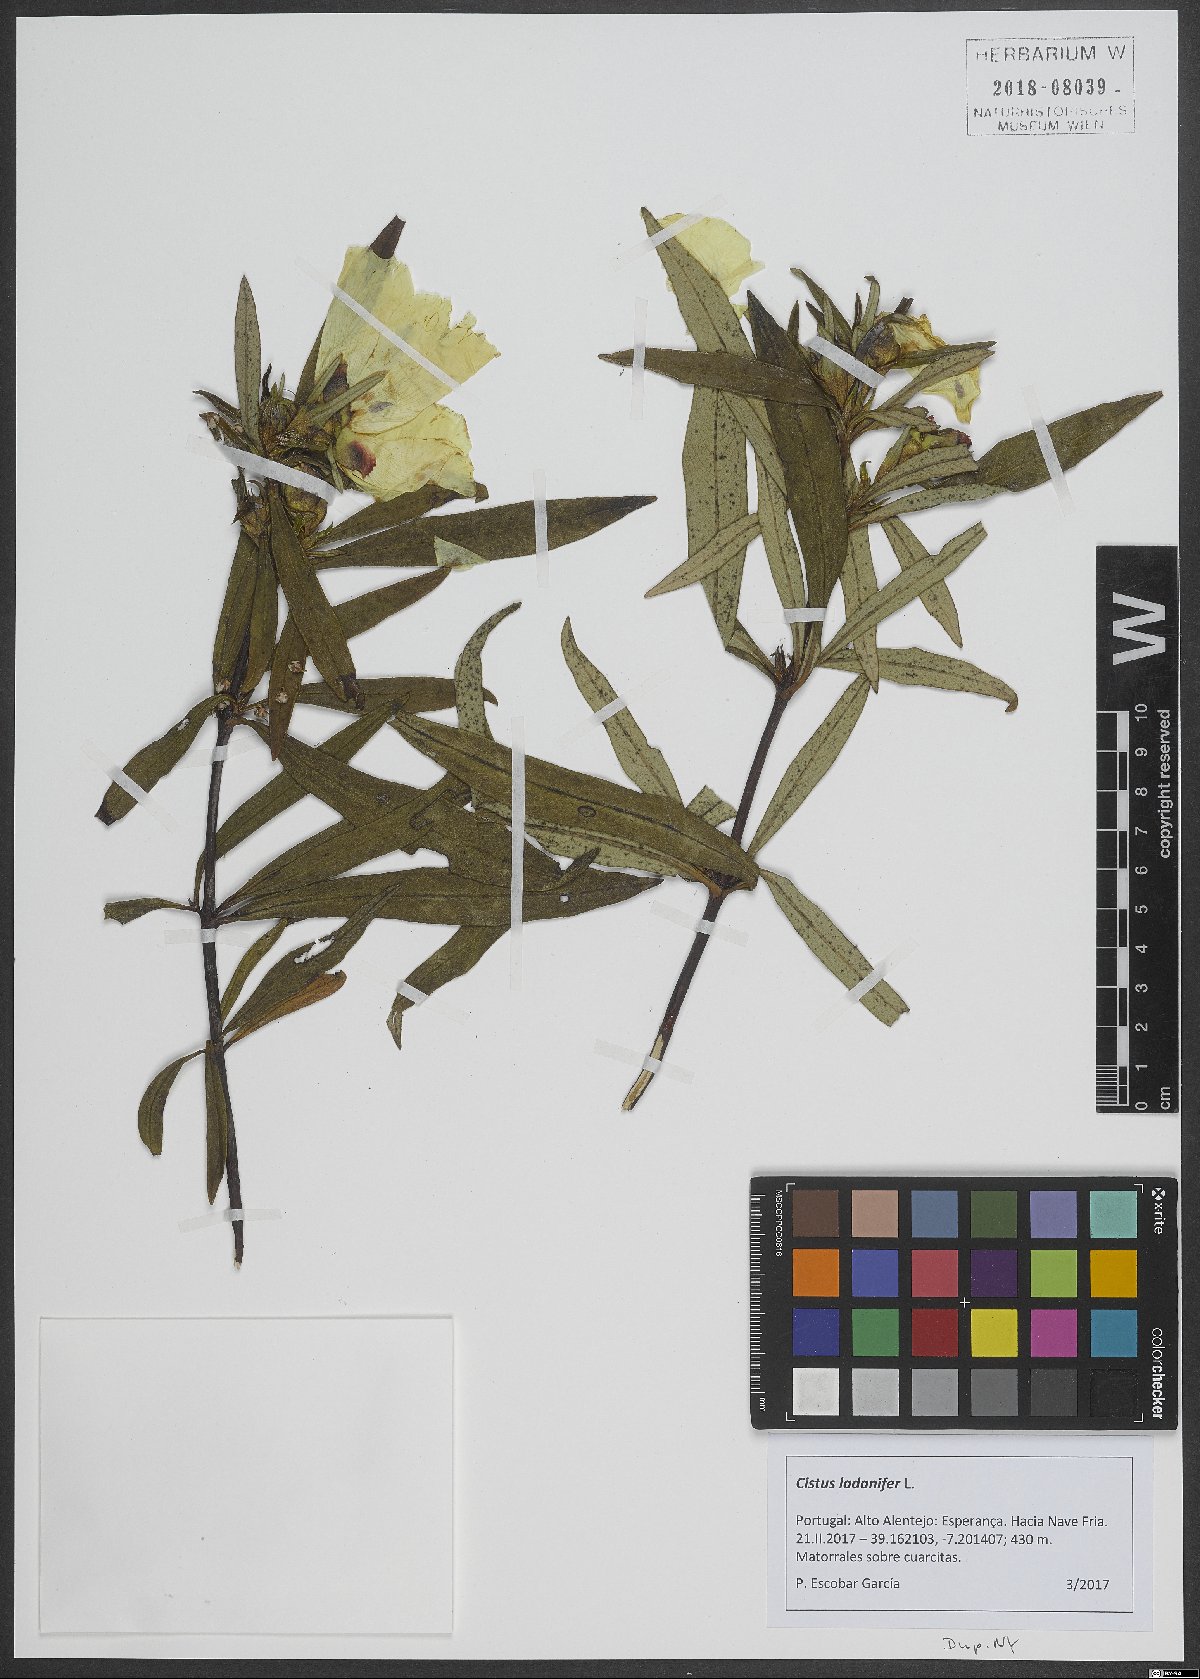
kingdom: Plantae
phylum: Tracheophyta
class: Magnoliopsida
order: Malvales
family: Cistaceae
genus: Cistus
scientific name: Cistus ladanifer
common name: Common gum cistus
